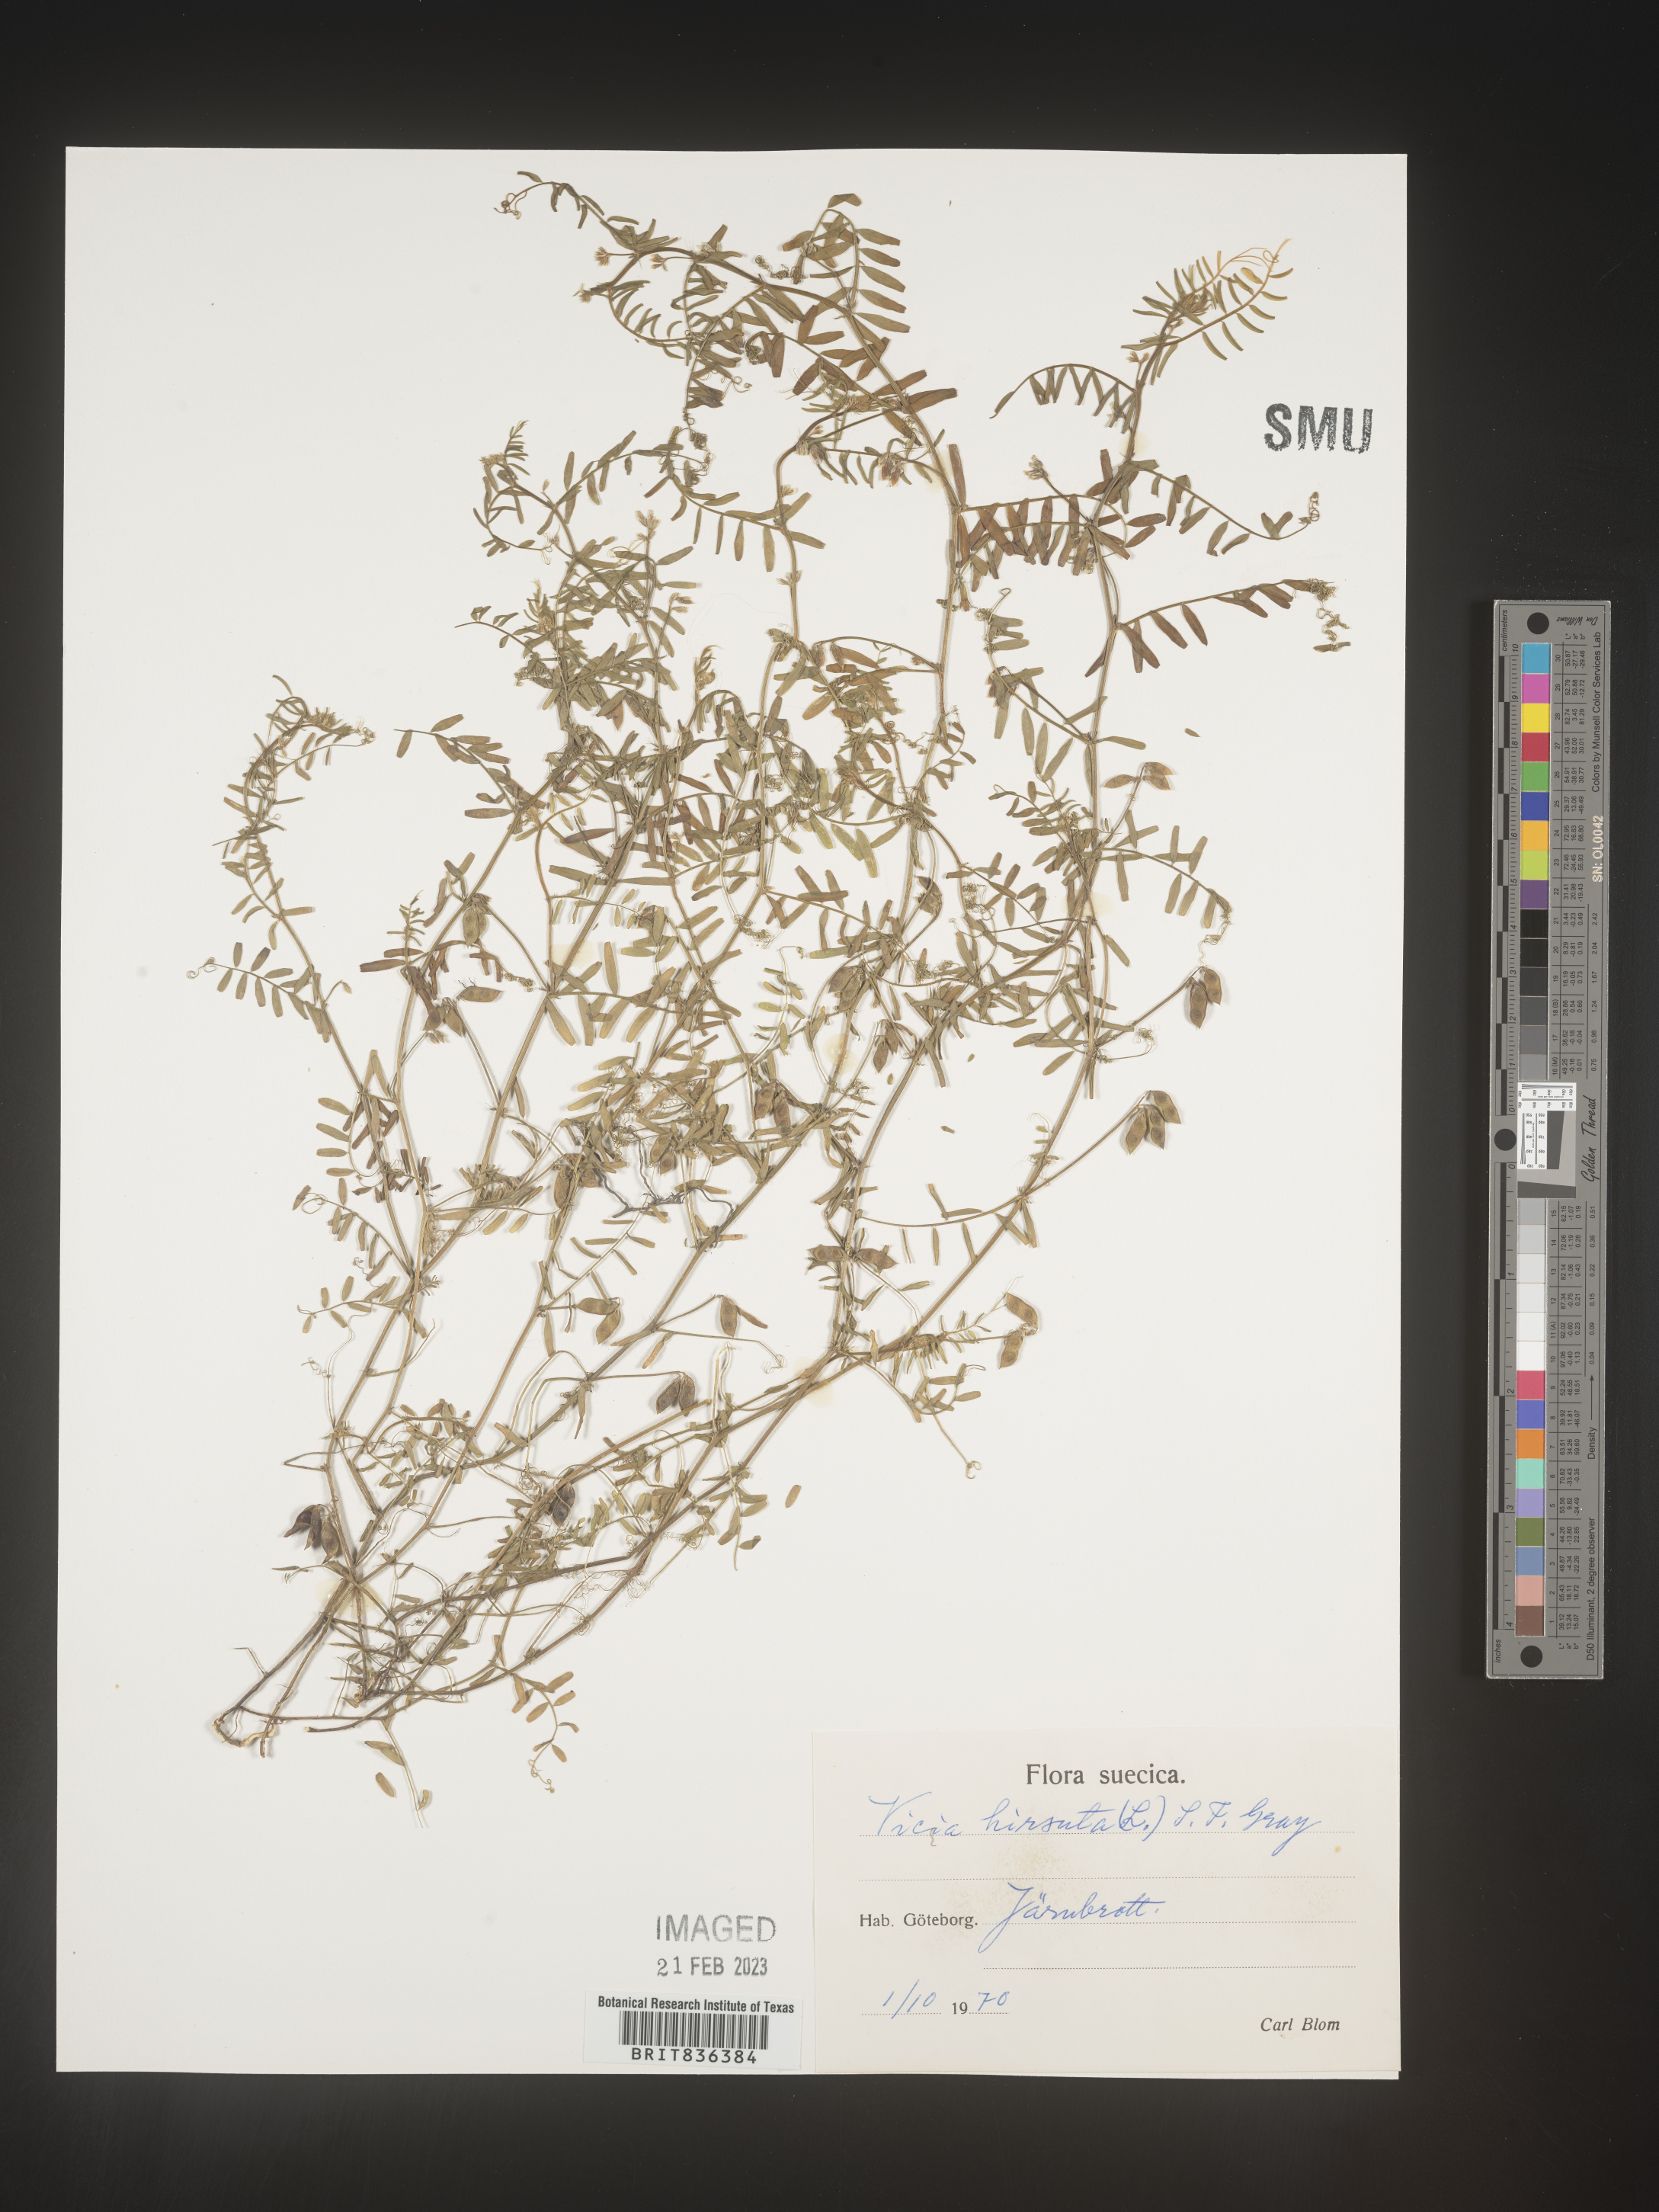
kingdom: Plantae
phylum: Tracheophyta
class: Magnoliopsida
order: Fabales
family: Fabaceae
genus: Vicia
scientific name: Vicia
